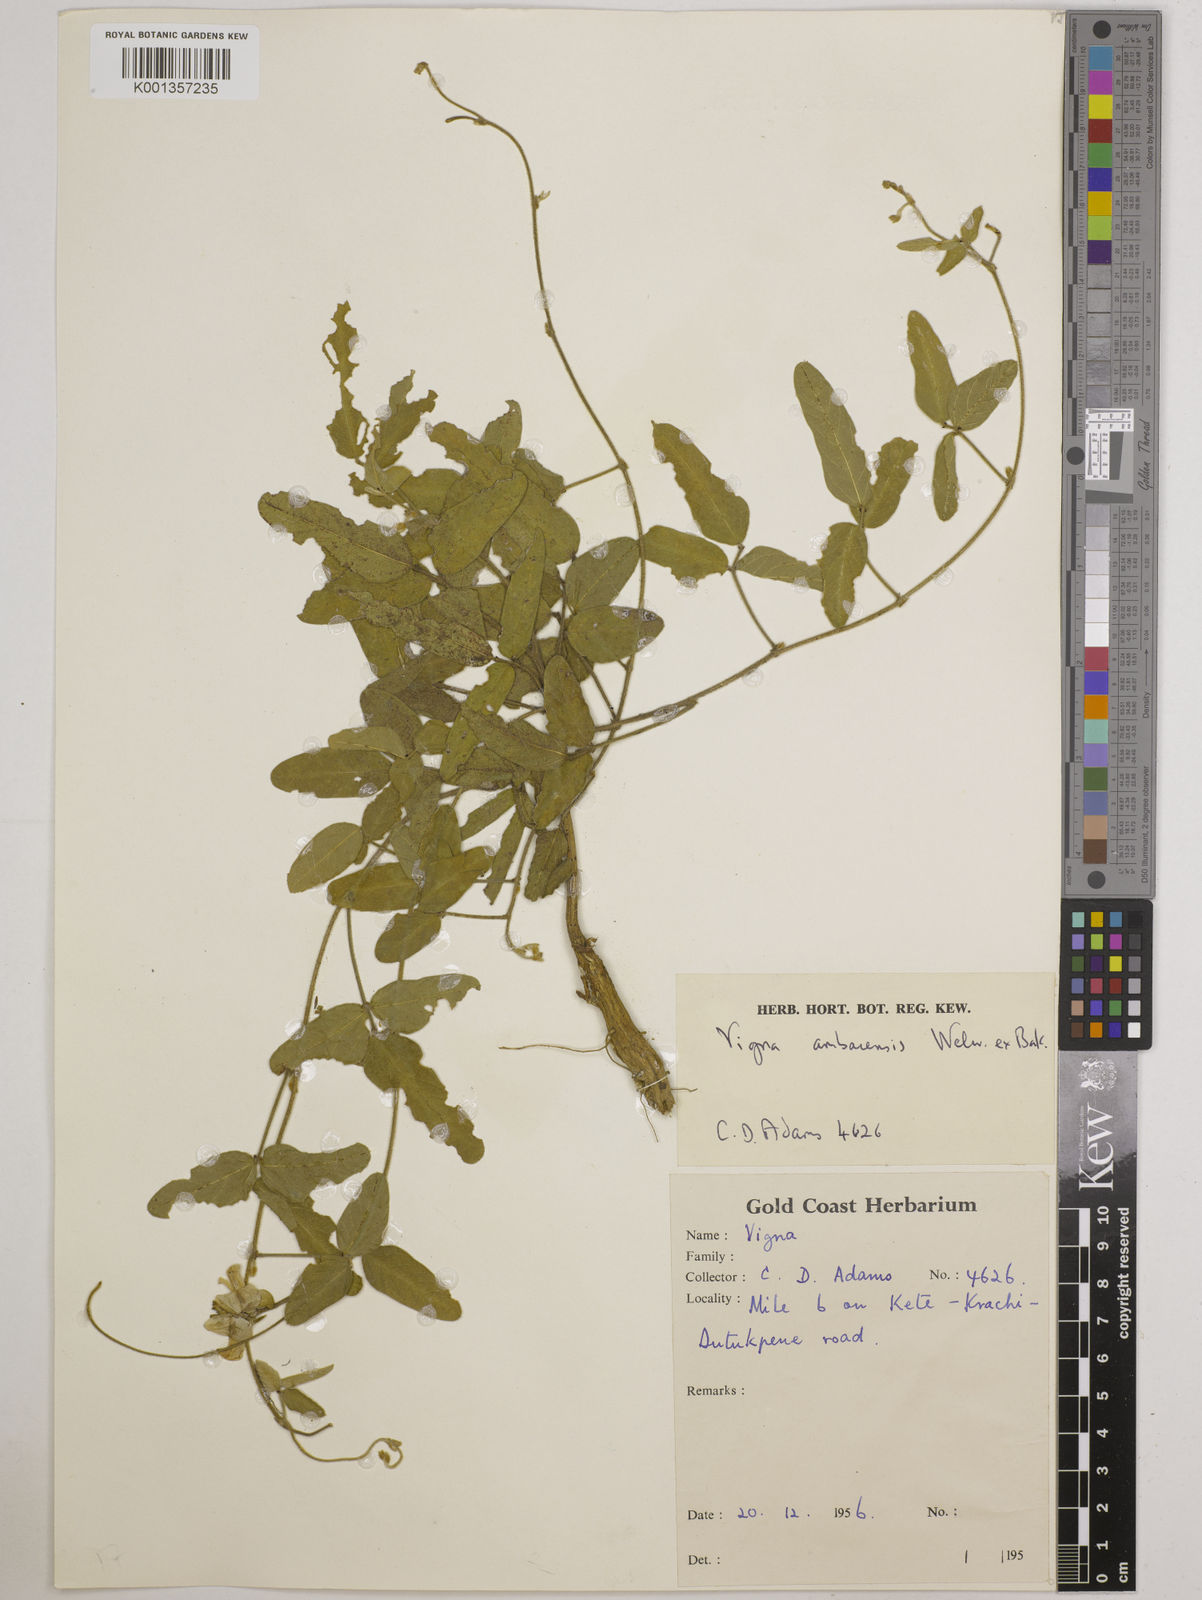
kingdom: Plantae
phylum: Tracheophyta
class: Magnoliopsida
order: Fabales
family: Fabaceae
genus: Vigna
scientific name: Vigna ambacensis
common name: Tsarkiyan zomo
